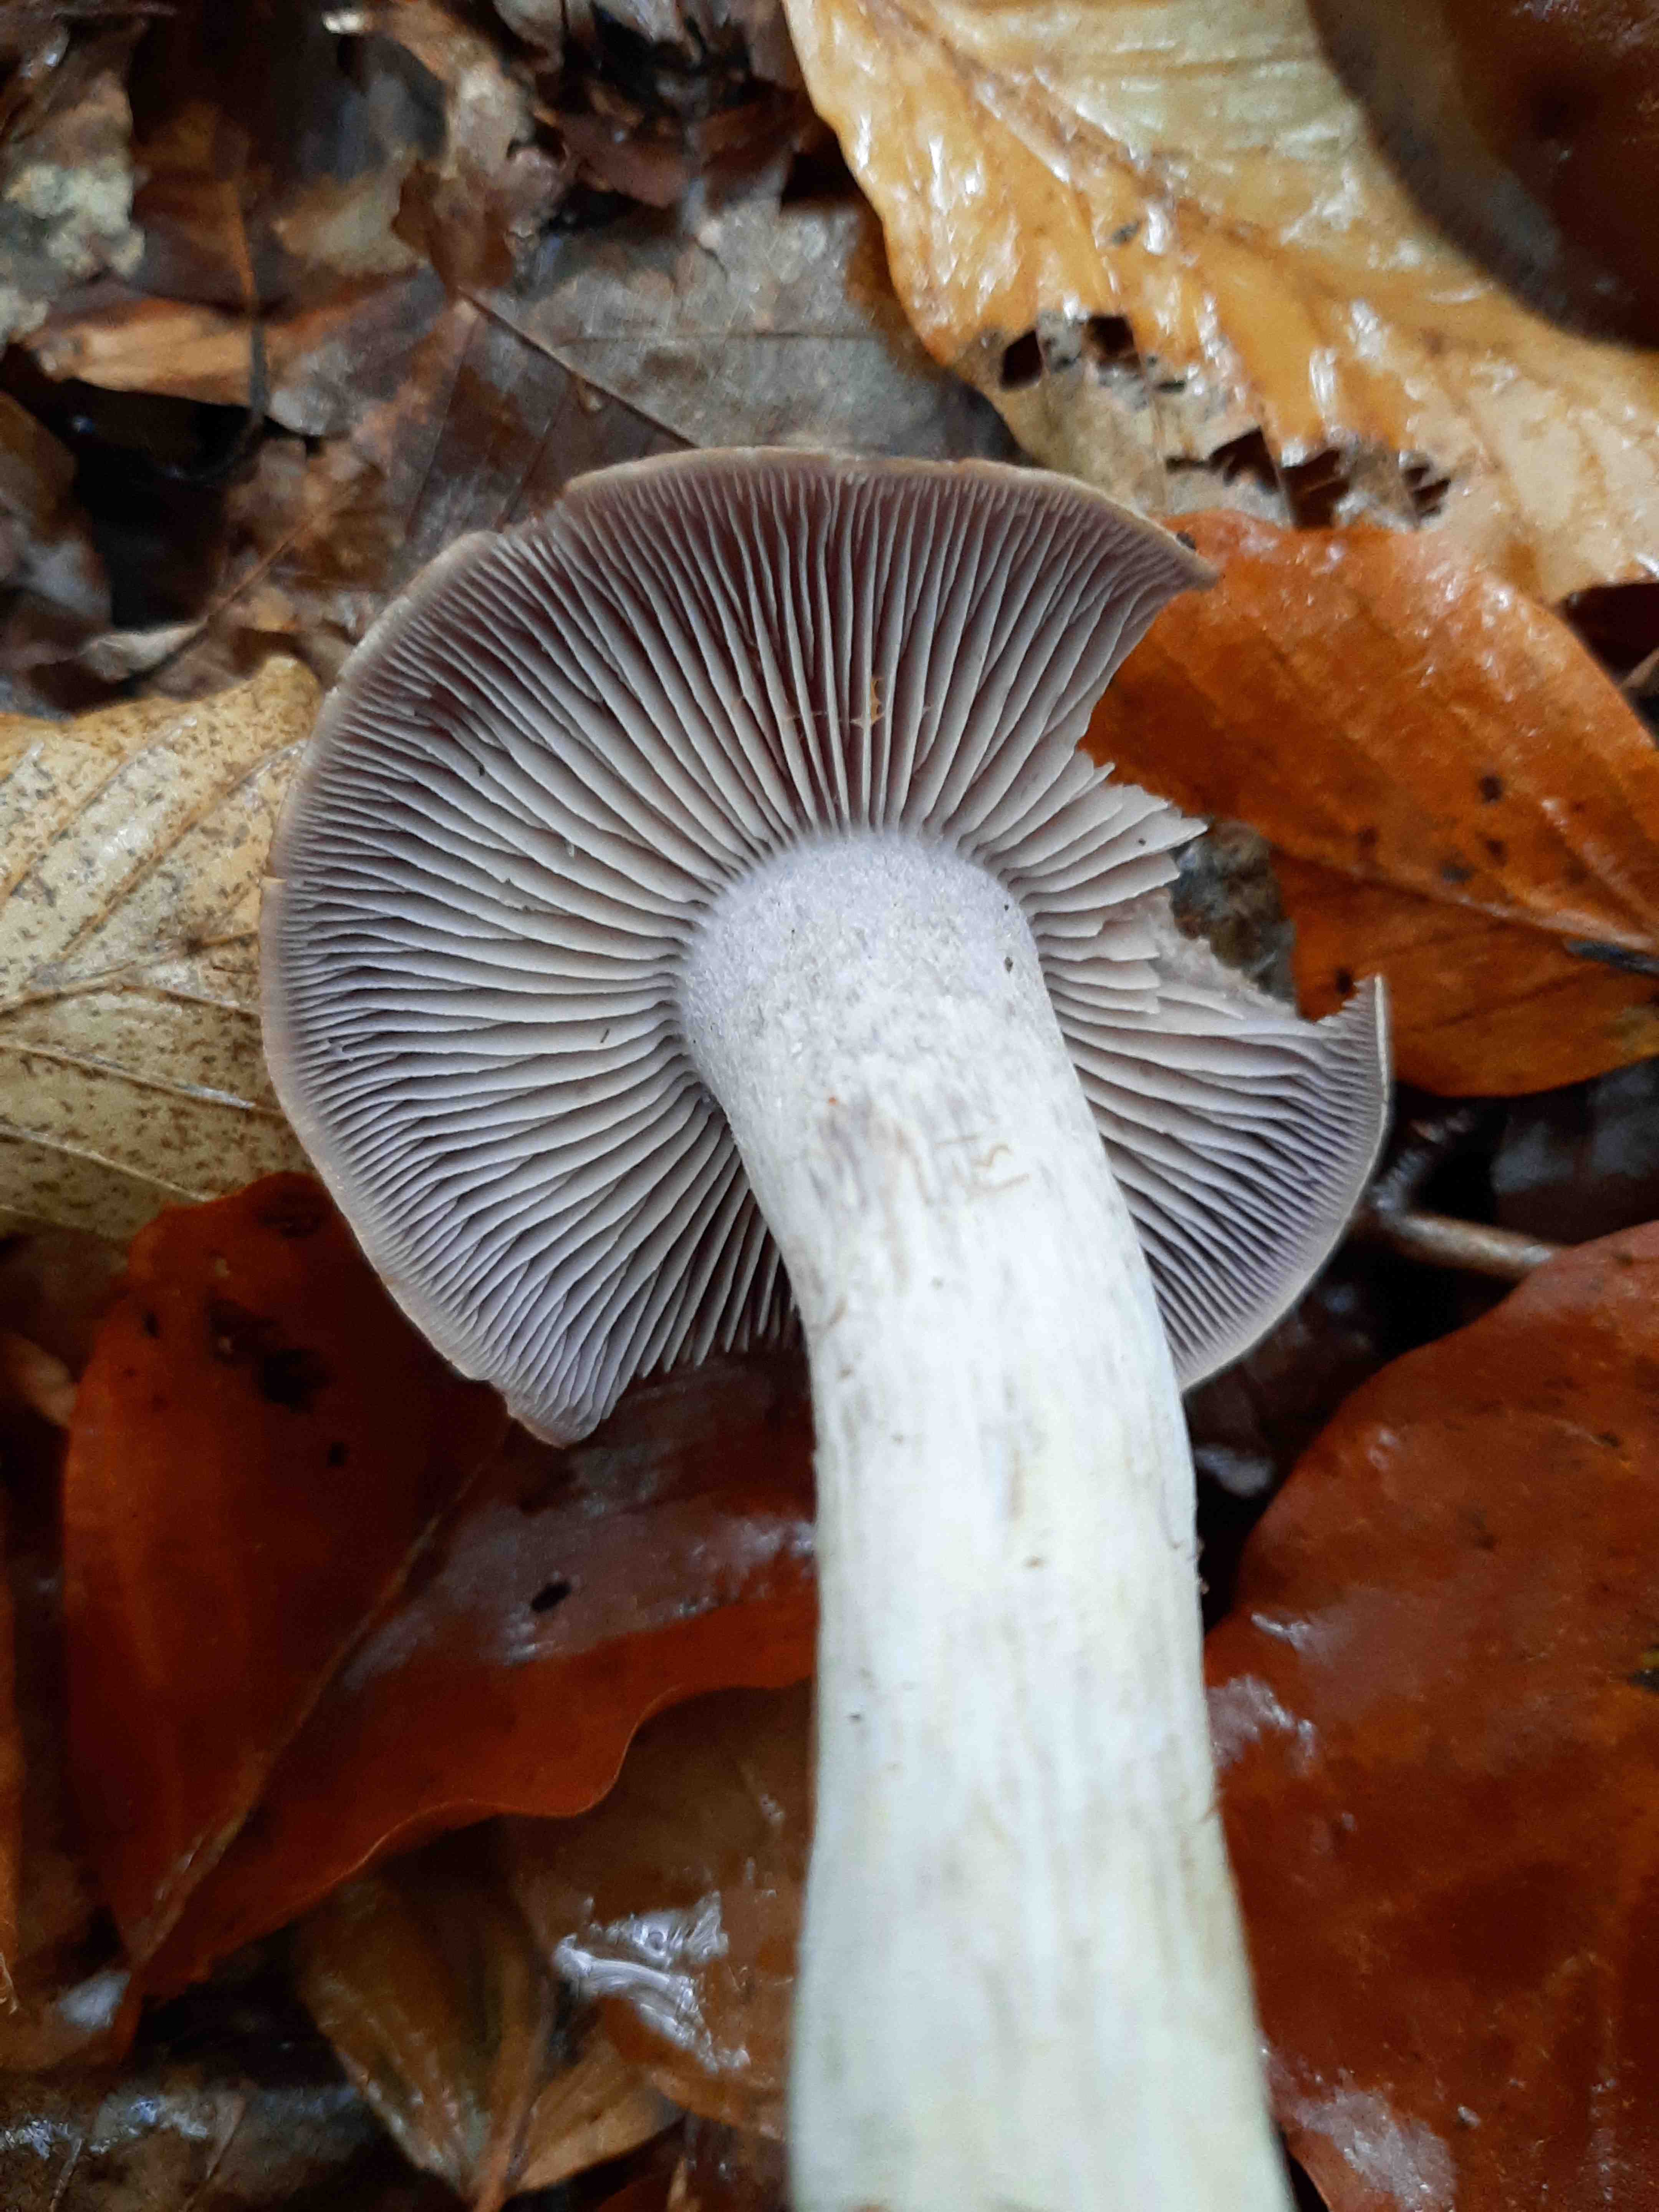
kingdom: Fungi
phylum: Basidiomycota
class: Agaricomycetes
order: Agaricales
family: Cortinariaceae
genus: Cortinarius
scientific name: Cortinarius
